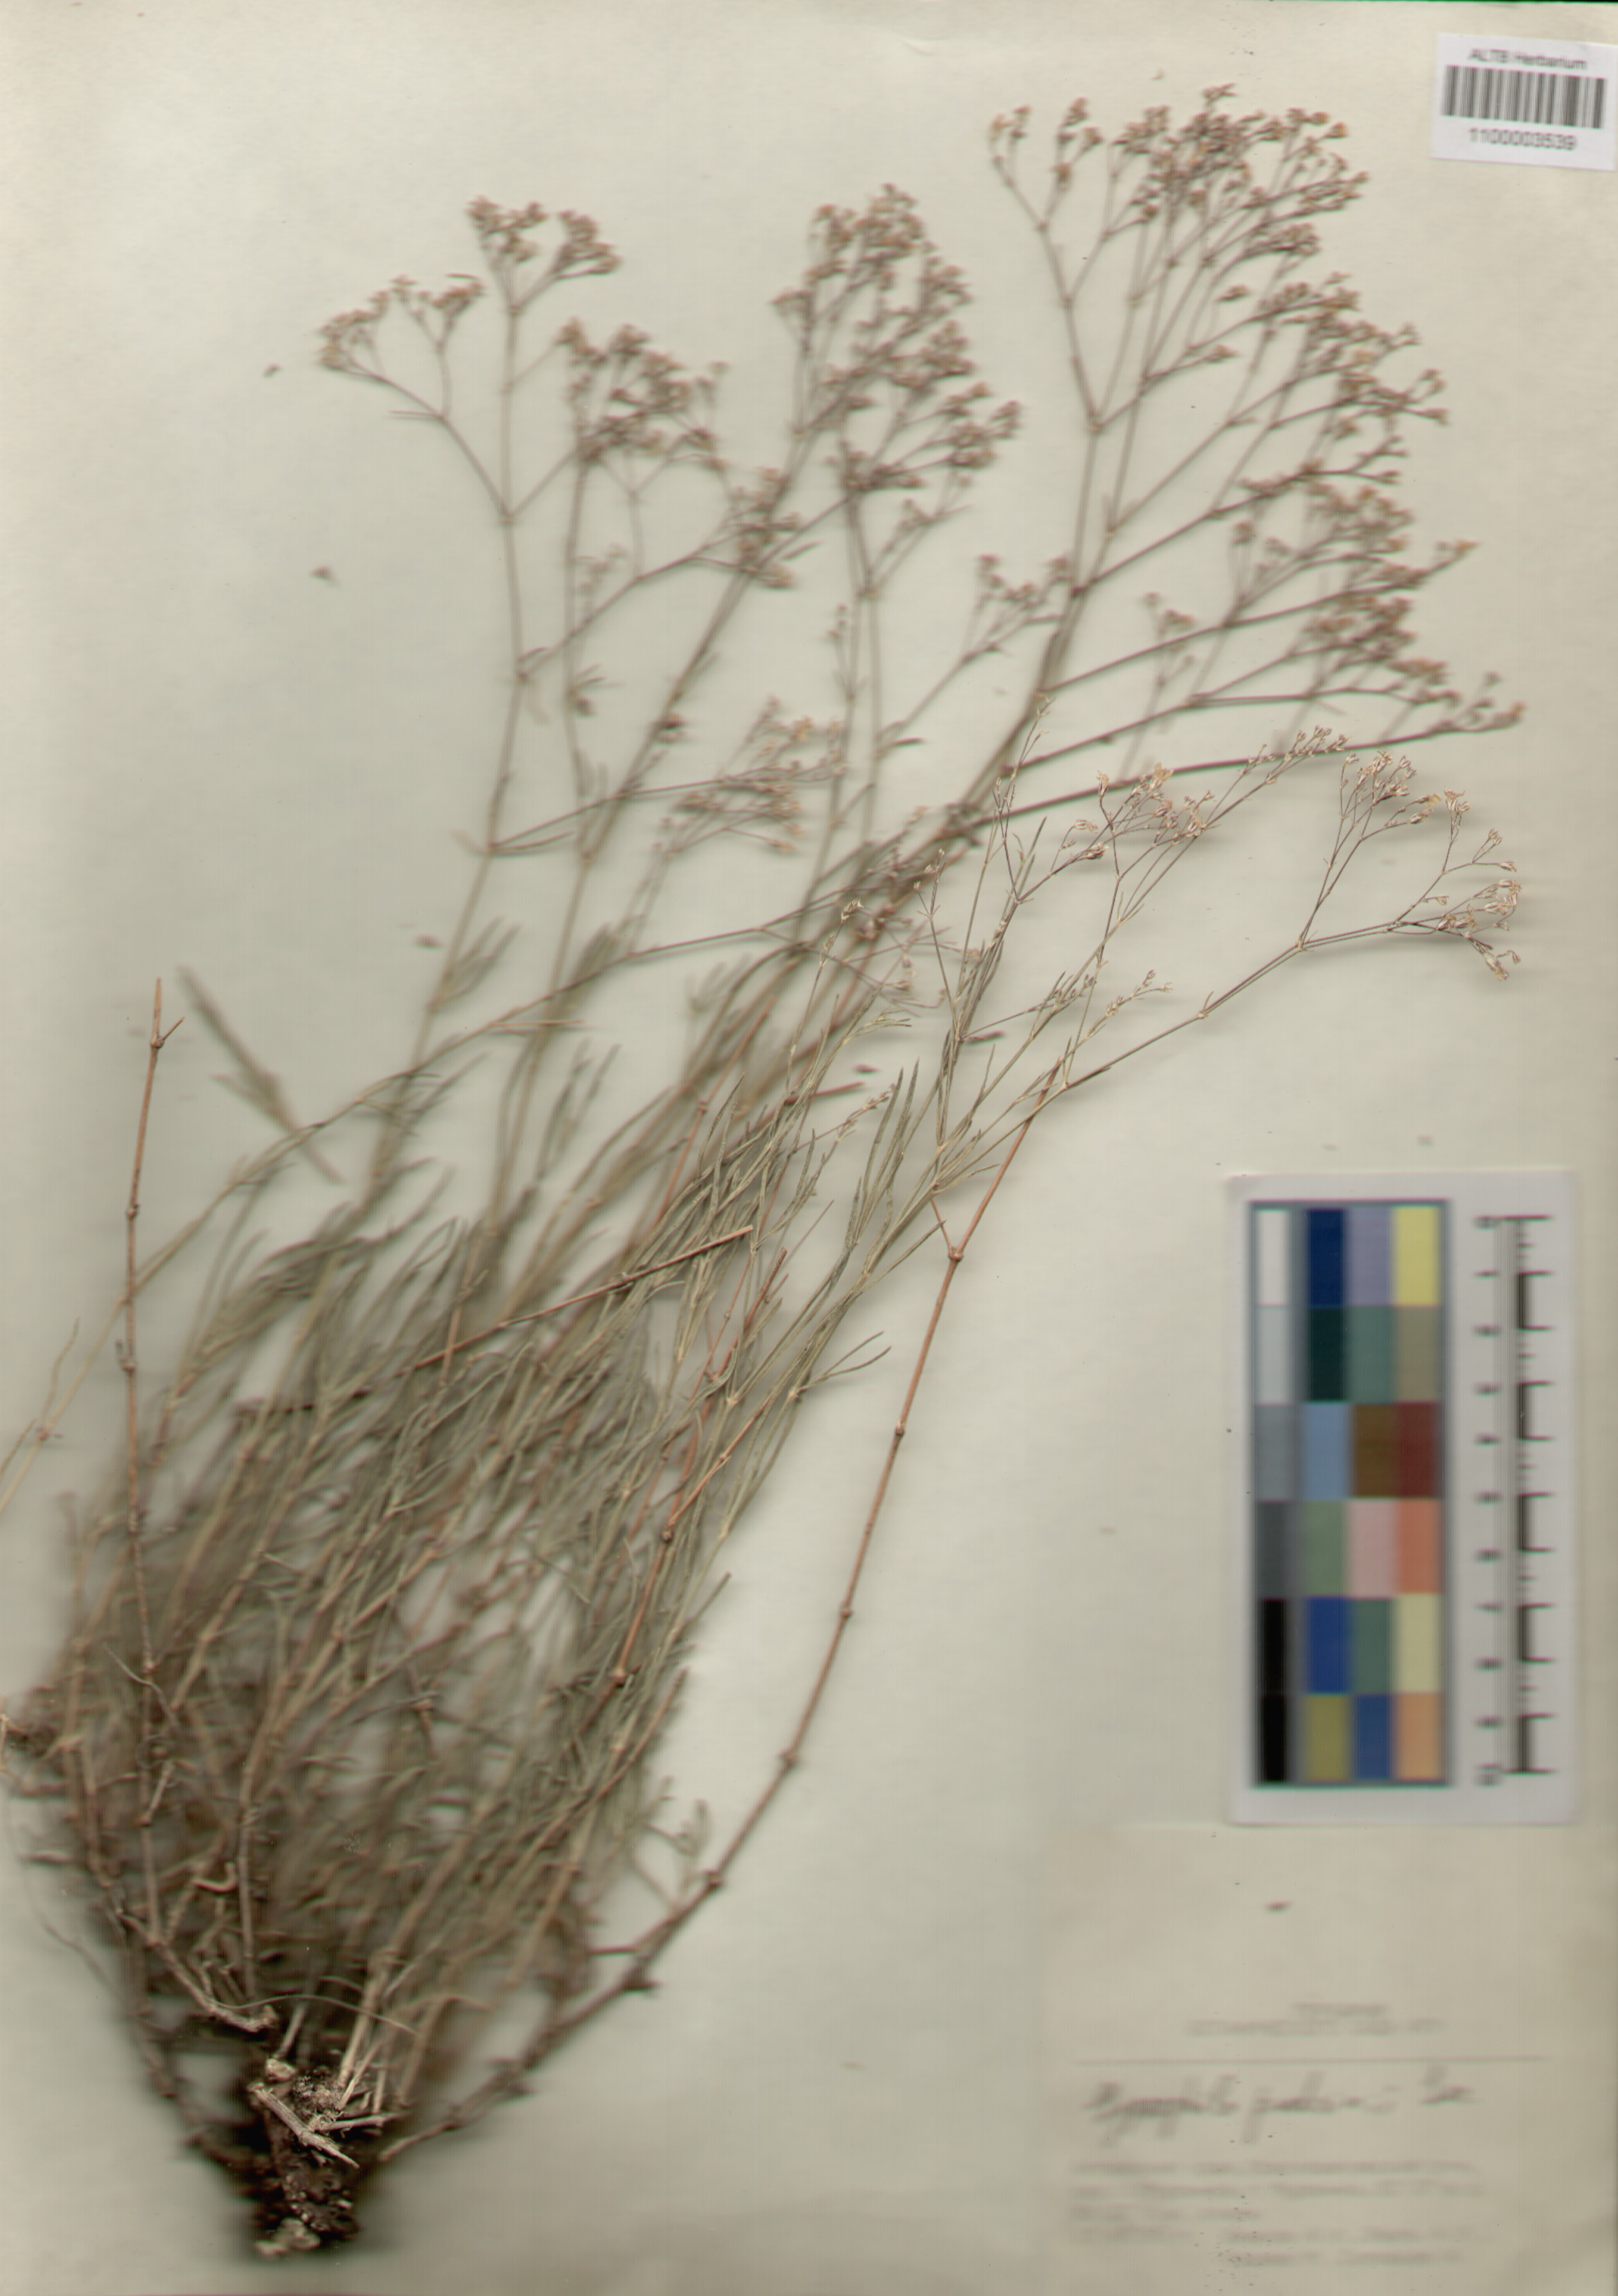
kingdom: Plantae
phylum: Tracheophyta
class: Magnoliopsida
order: Caryophyllales
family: Caryophyllaceae
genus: Gypsophila
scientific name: Gypsophila patrinii
